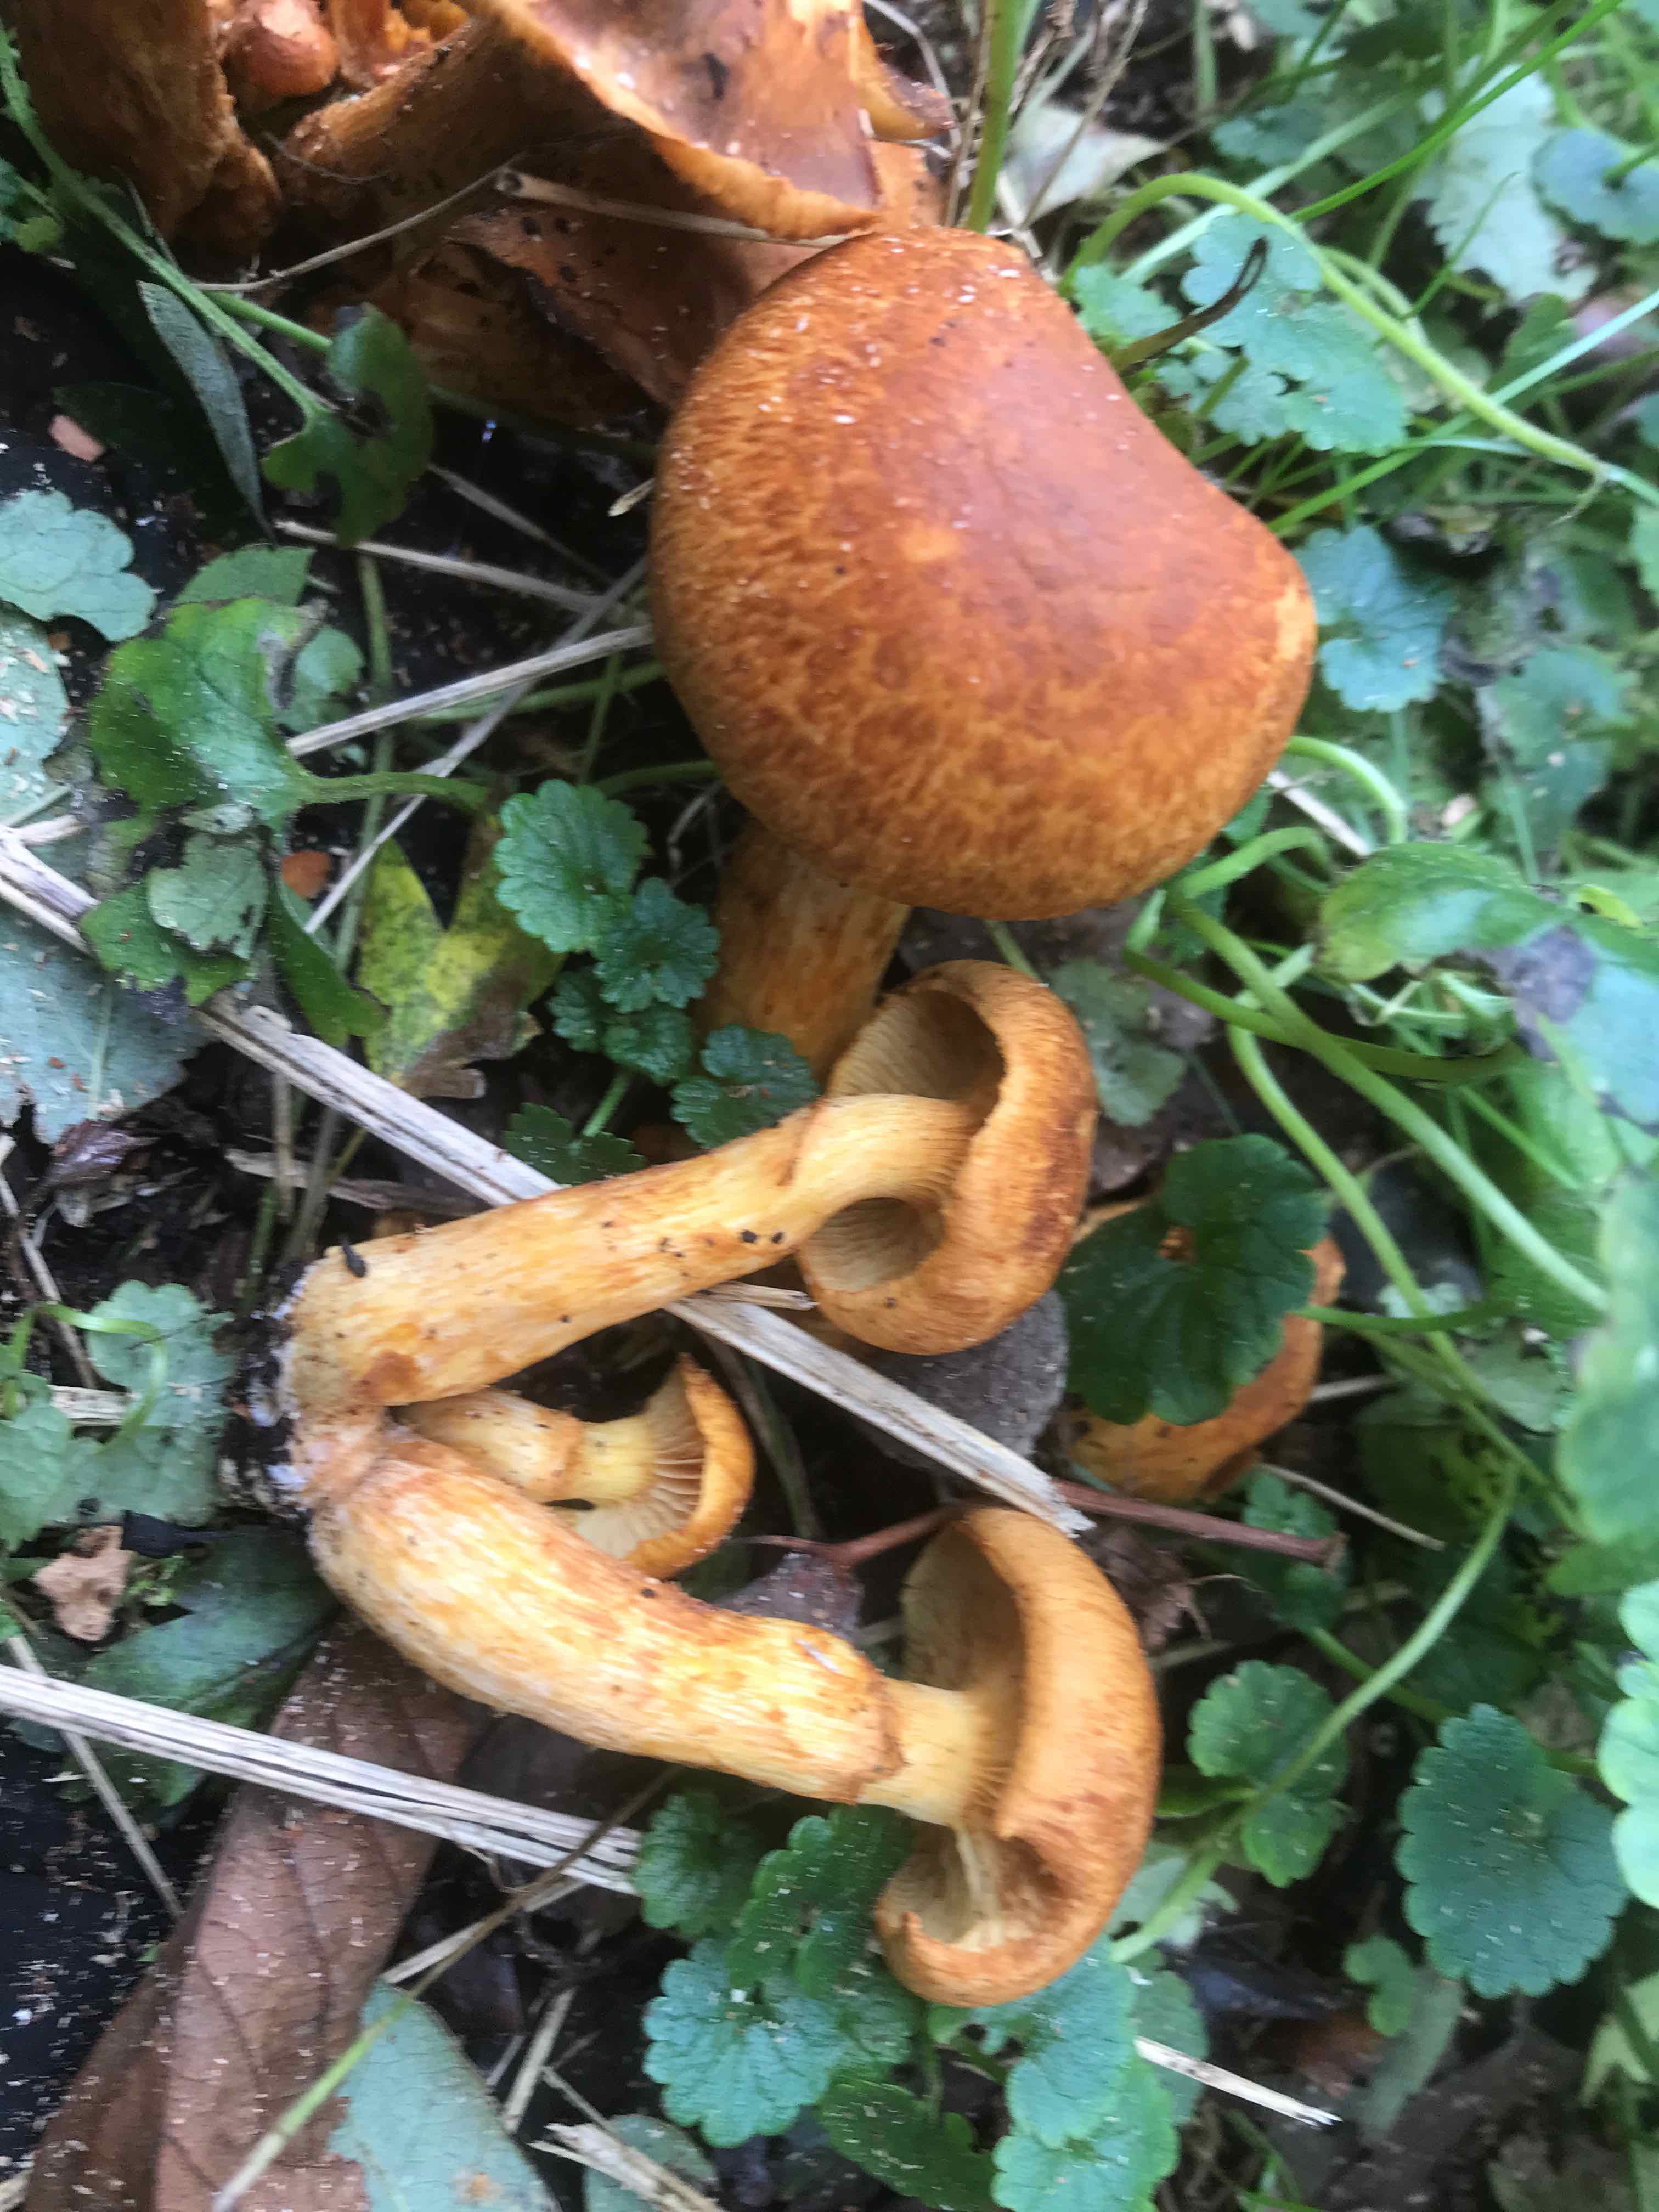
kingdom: Fungi
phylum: Basidiomycota
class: Agaricomycetes
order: Agaricales
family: Hymenogastraceae
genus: Gymnopilus
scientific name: Gymnopilus spectabilis
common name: fibret flammehat
